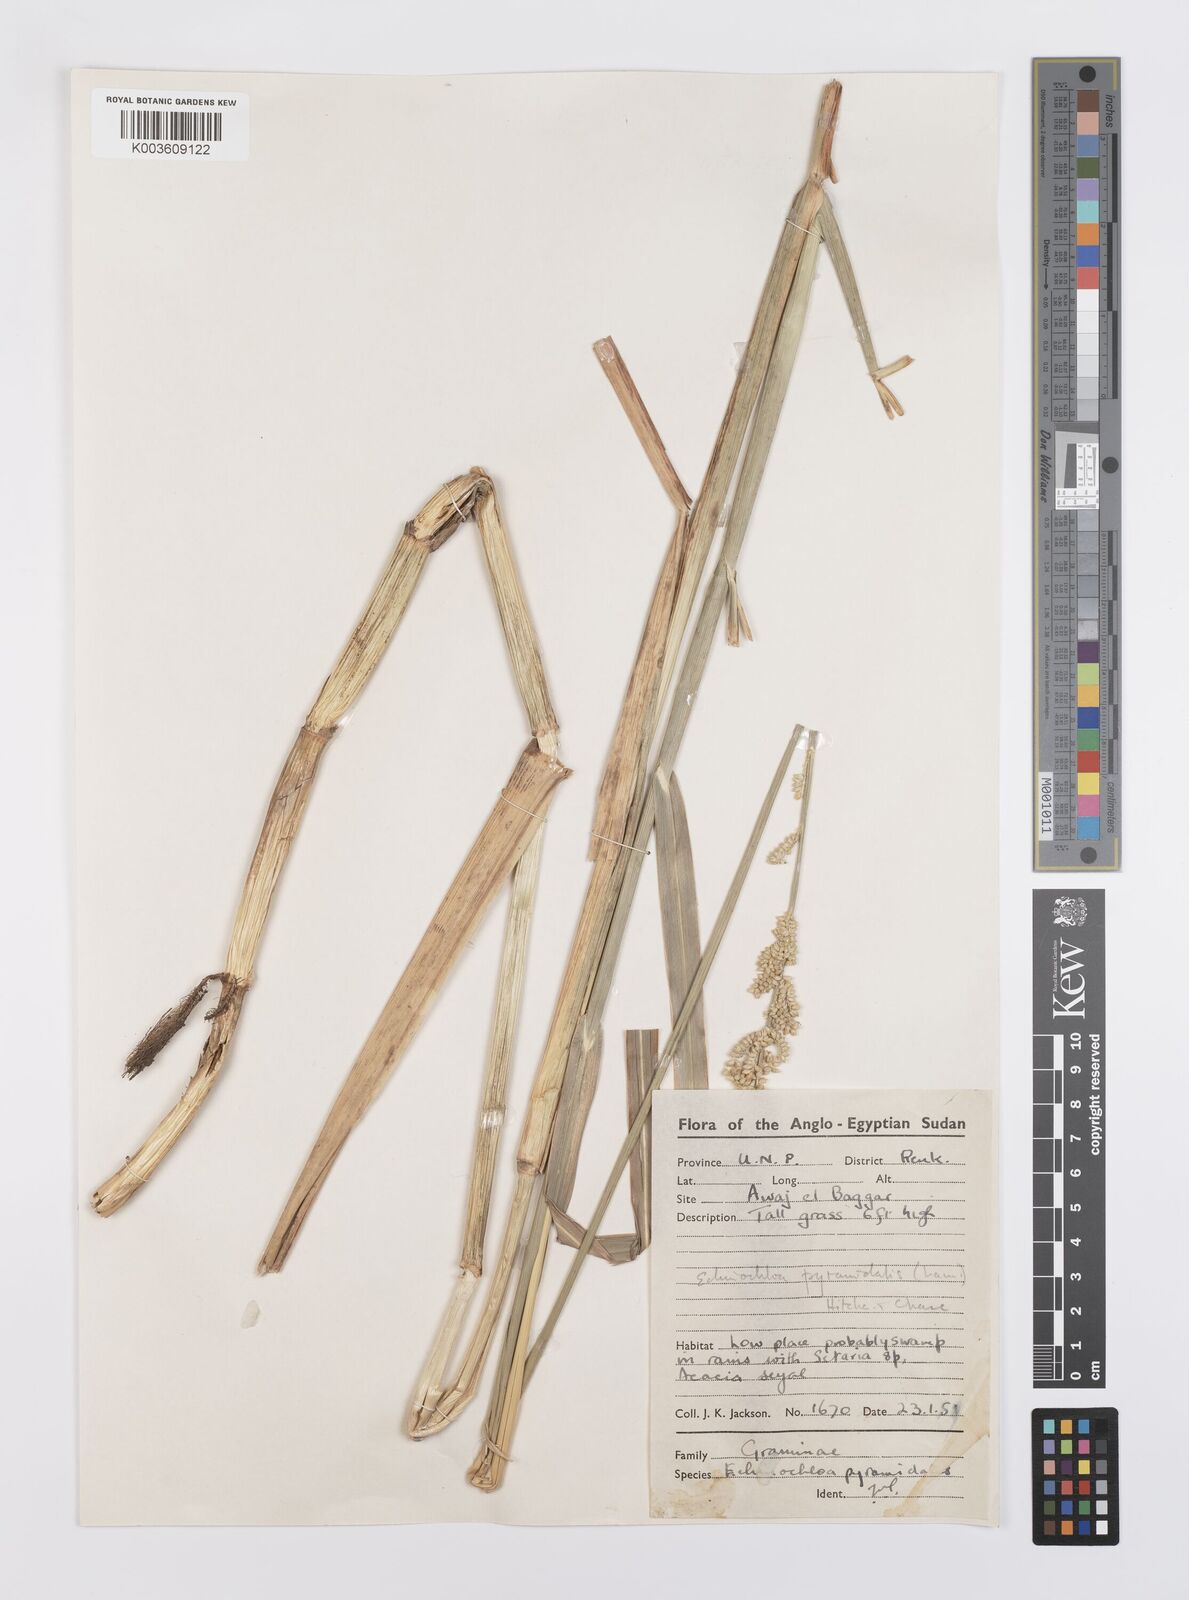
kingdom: Plantae
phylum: Tracheophyta
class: Liliopsida
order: Poales
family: Poaceae
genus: Echinochloa
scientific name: Echinochloa pyramidalis
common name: Antelope grass
